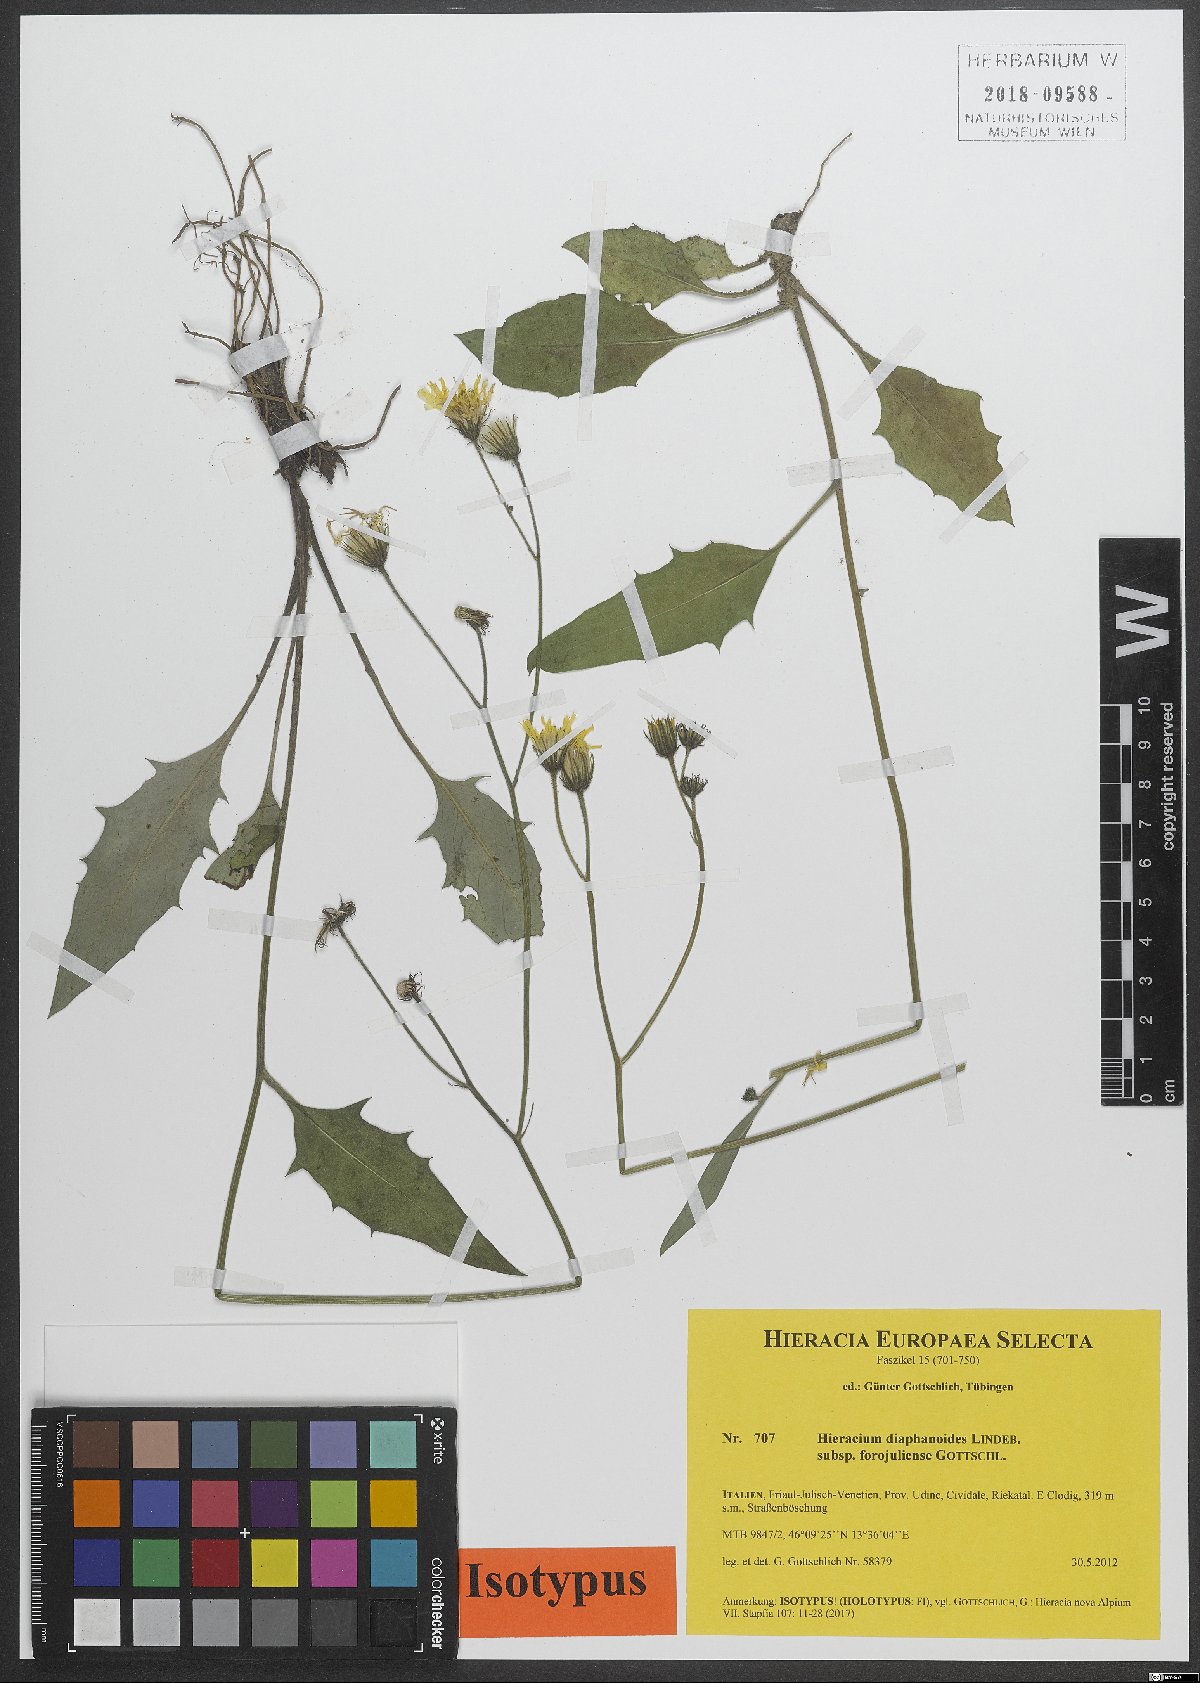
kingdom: Plantae
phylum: Tracheophyta
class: Magnoliopsida
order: Asterales
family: Asteraceae
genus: Hieracium
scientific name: Hieracium diaphanoides
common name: Fine-bracted hawkweed
